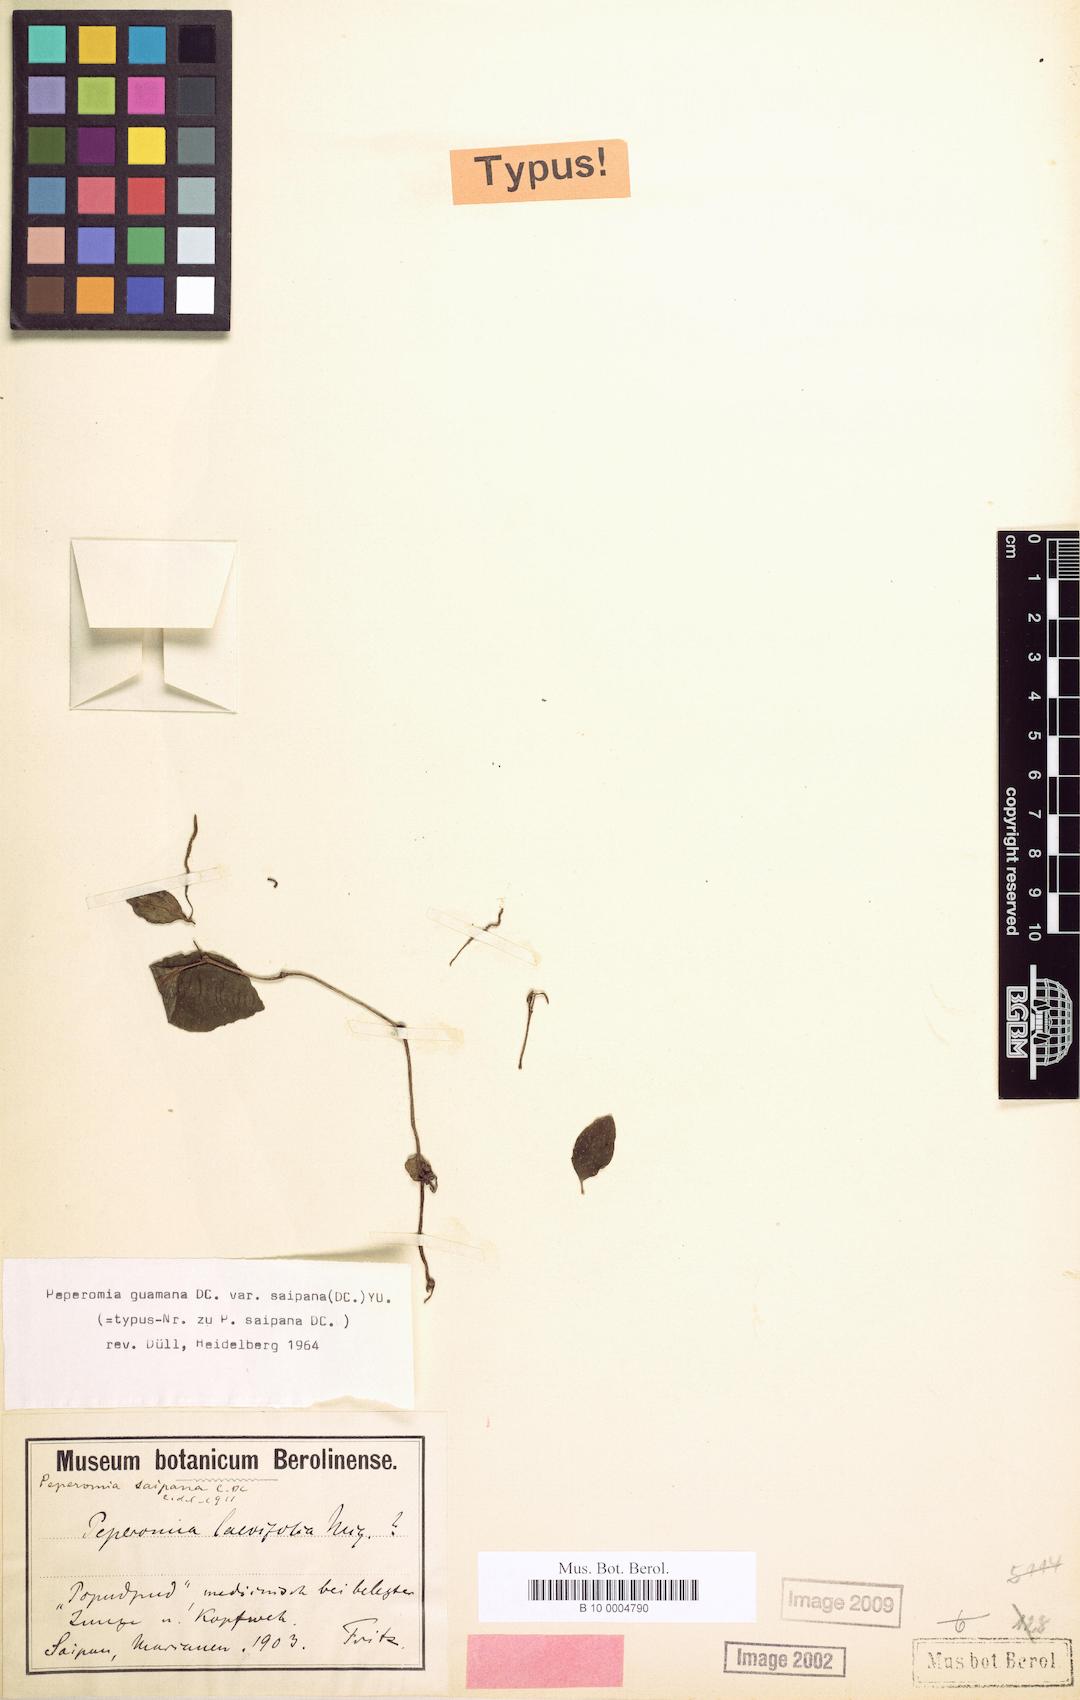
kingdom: Plantae
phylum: Tracheophyta
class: Magnoliopsida
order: Piperales
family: Piperaceae
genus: Peperomia
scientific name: Peperomia mariannensis
